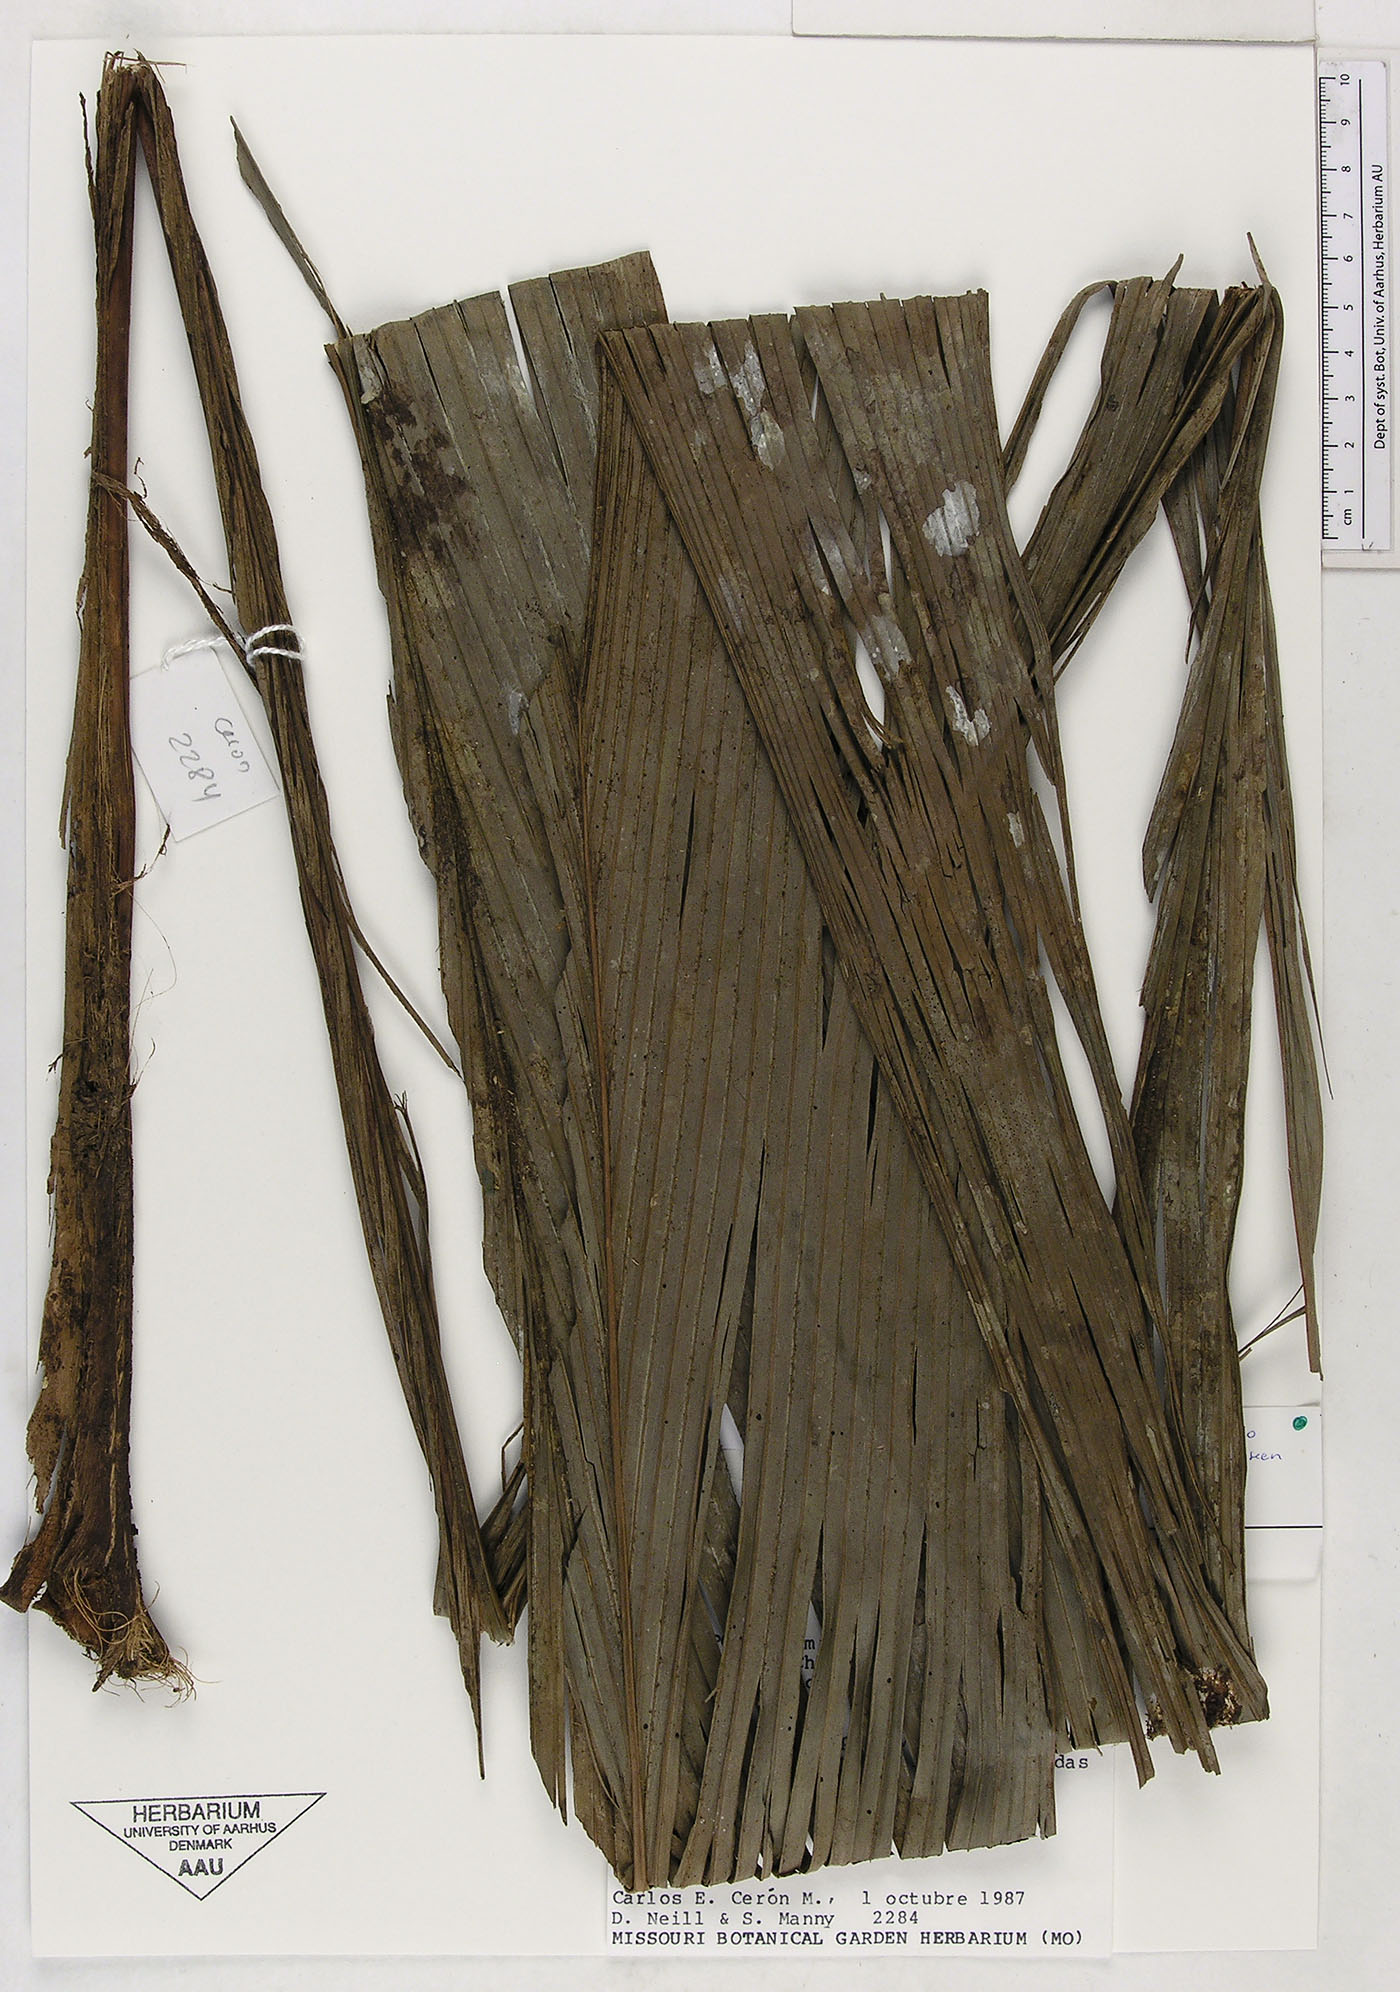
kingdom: Plantae
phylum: Tracheophyta
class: Liliopsida
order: Arecales
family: Arecaceae
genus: Geonoma
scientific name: Geonoma macrostachys
